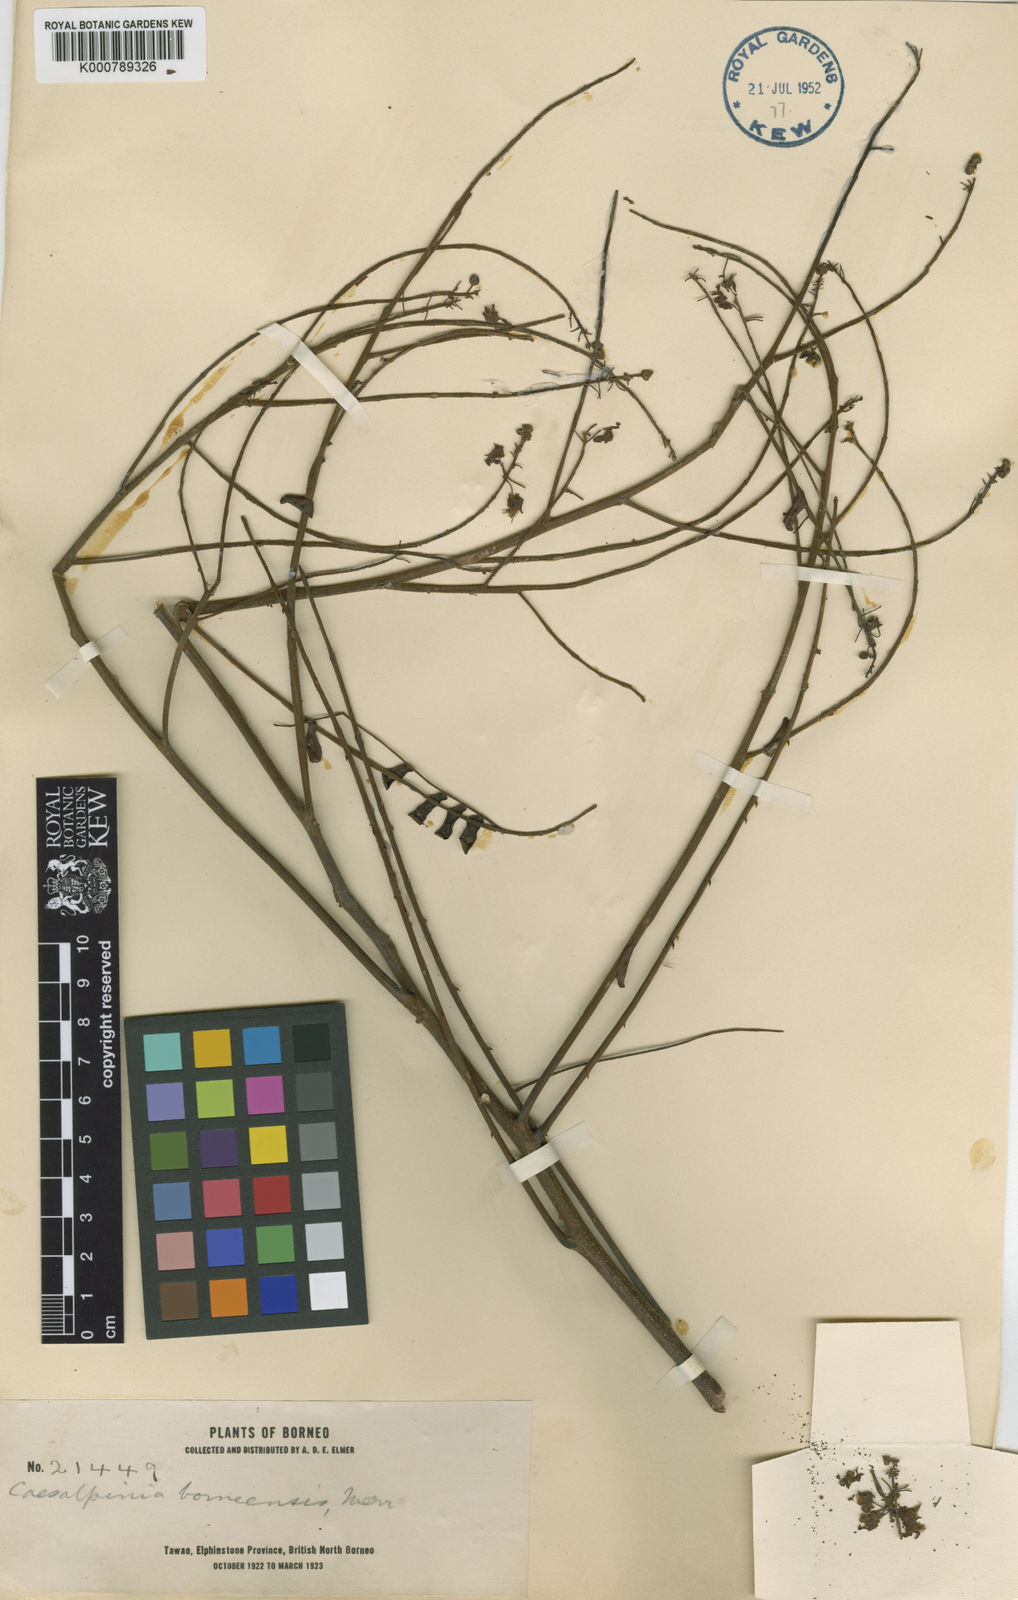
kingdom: Plantae
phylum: Tracheophyta
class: Magnoliopsida
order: Fabales
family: Fabaceae
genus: Caesalpinia
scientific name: Caesalpinia
